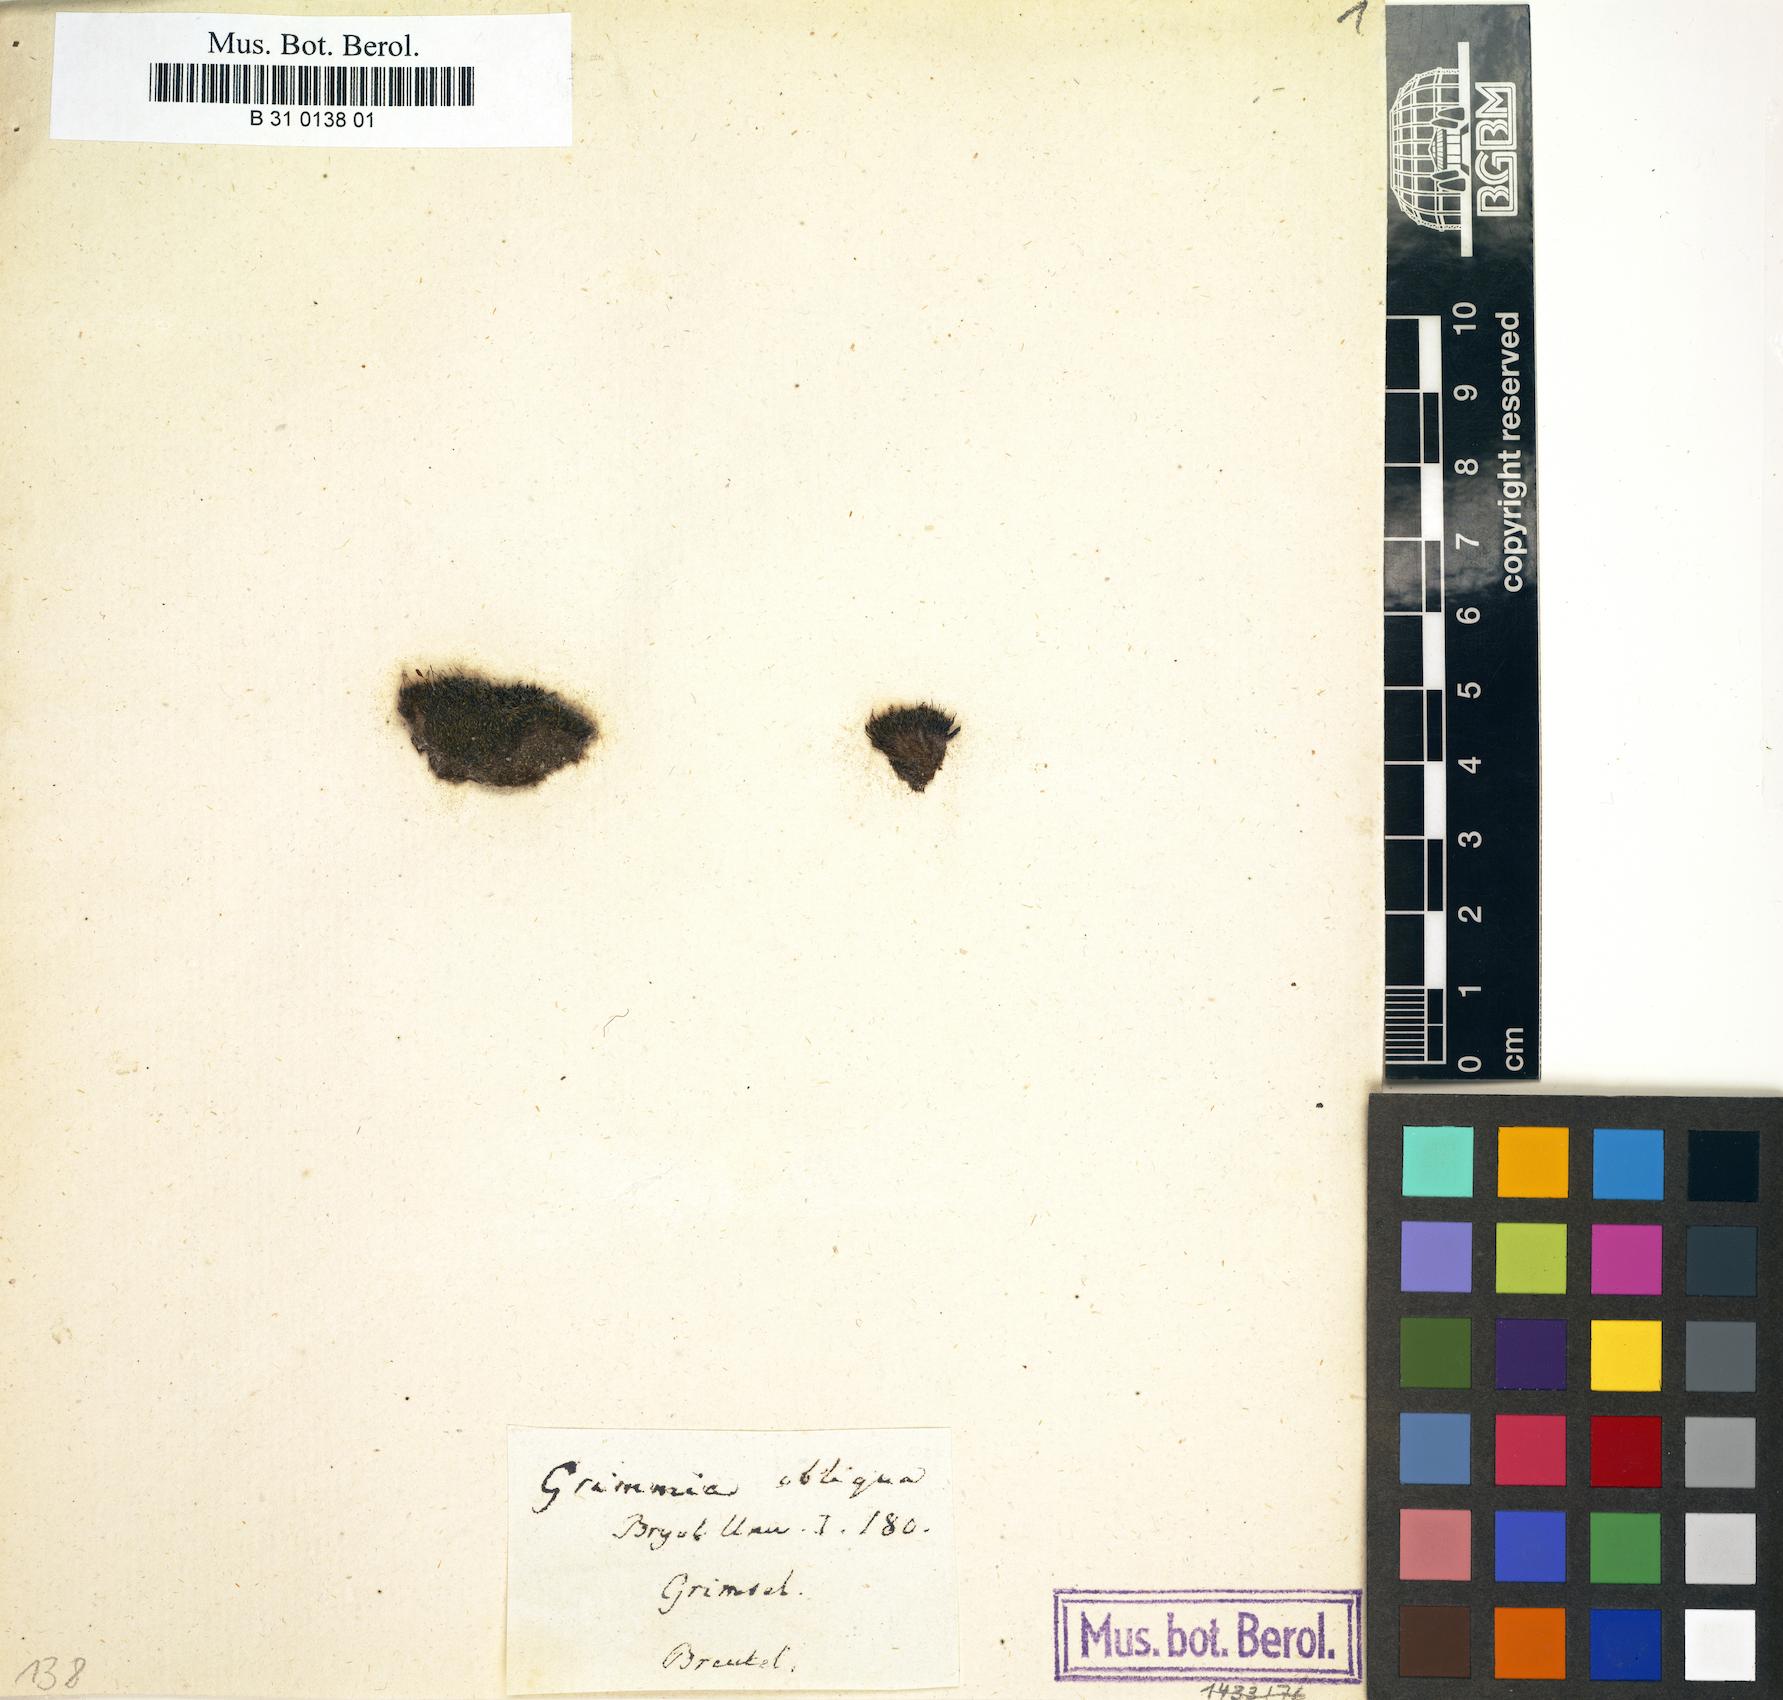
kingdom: Plantae
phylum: Bryophyta
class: Bryopsida
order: Grimmiales
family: Grimmiaceae
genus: Grimmia
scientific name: Grimmia longirostris
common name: Long-beaked grimmia
